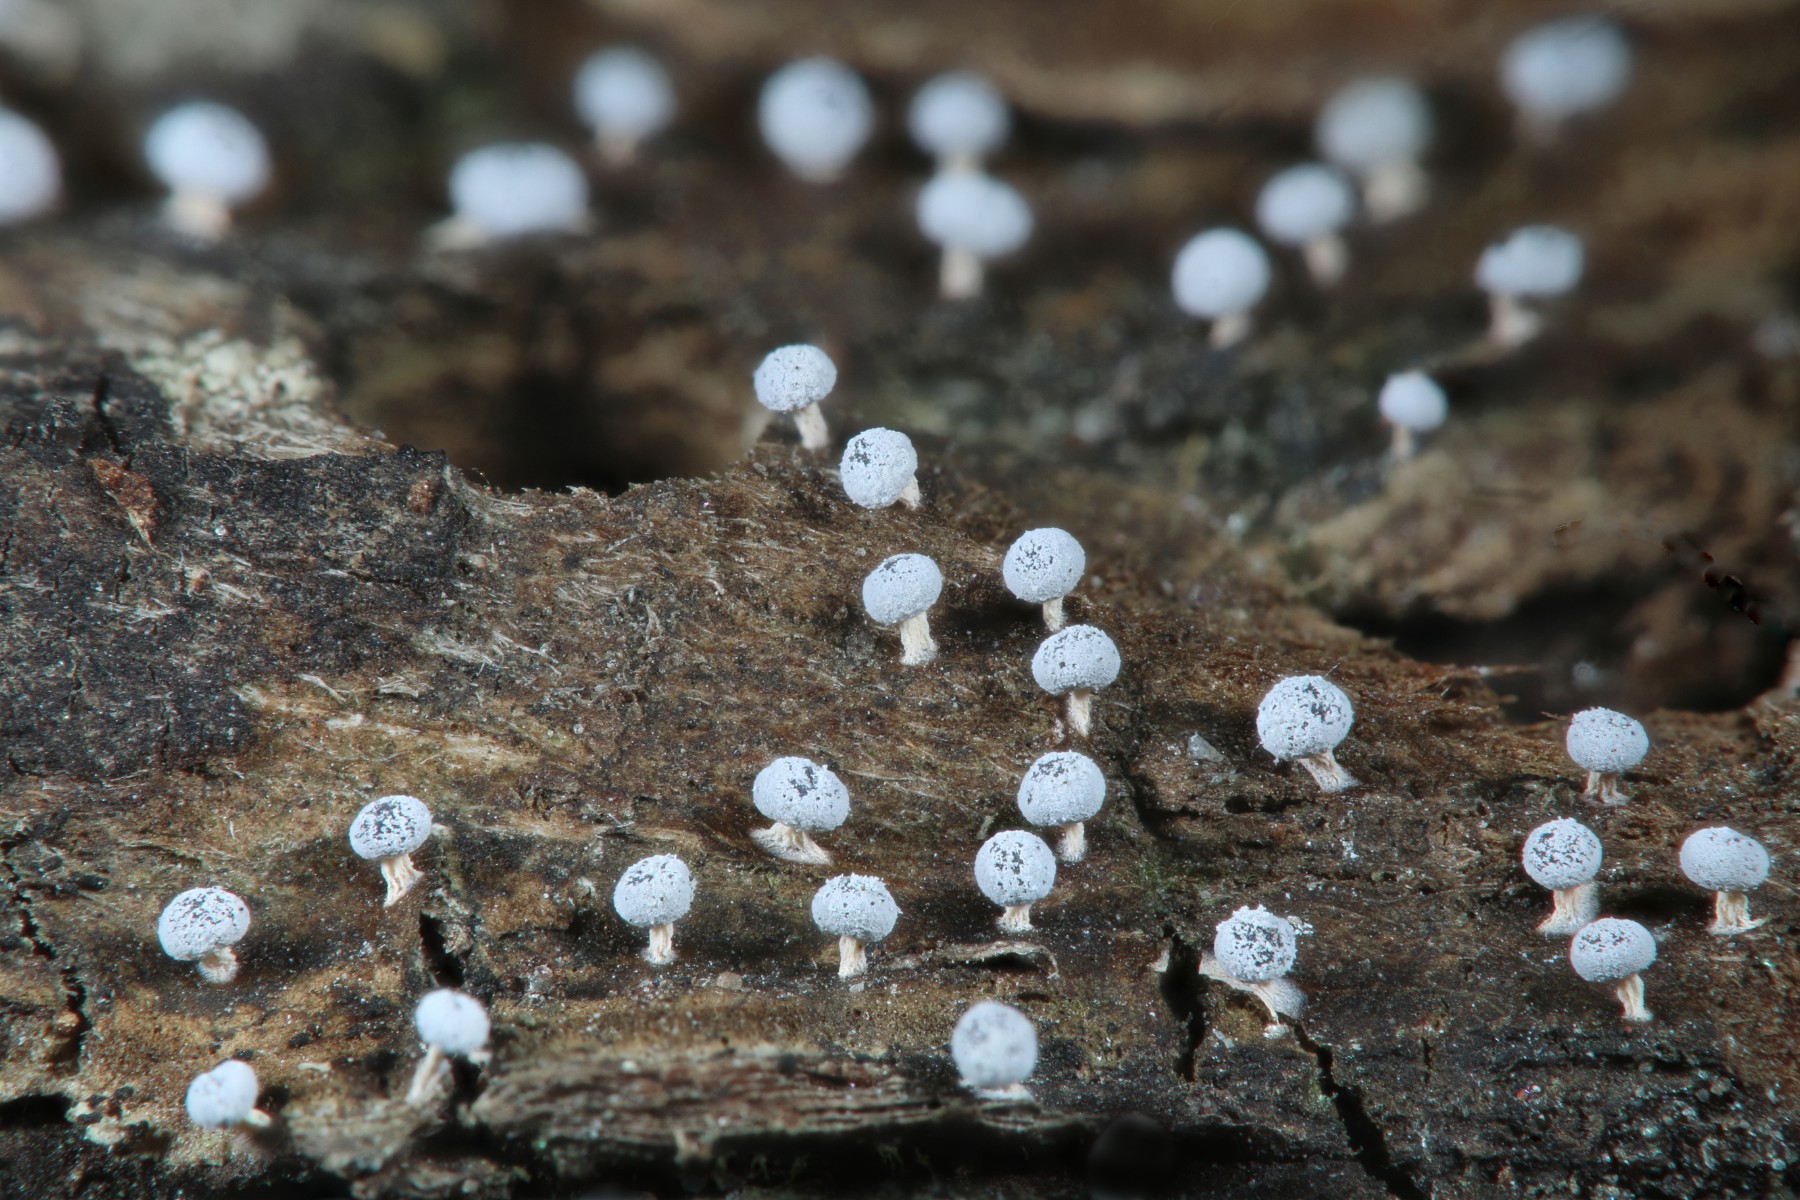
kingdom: Protozoa
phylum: Mycetozoa
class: Myxomycetes
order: Physarales
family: Didymiaceae
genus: Didymium
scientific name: Didymium squamulosum
